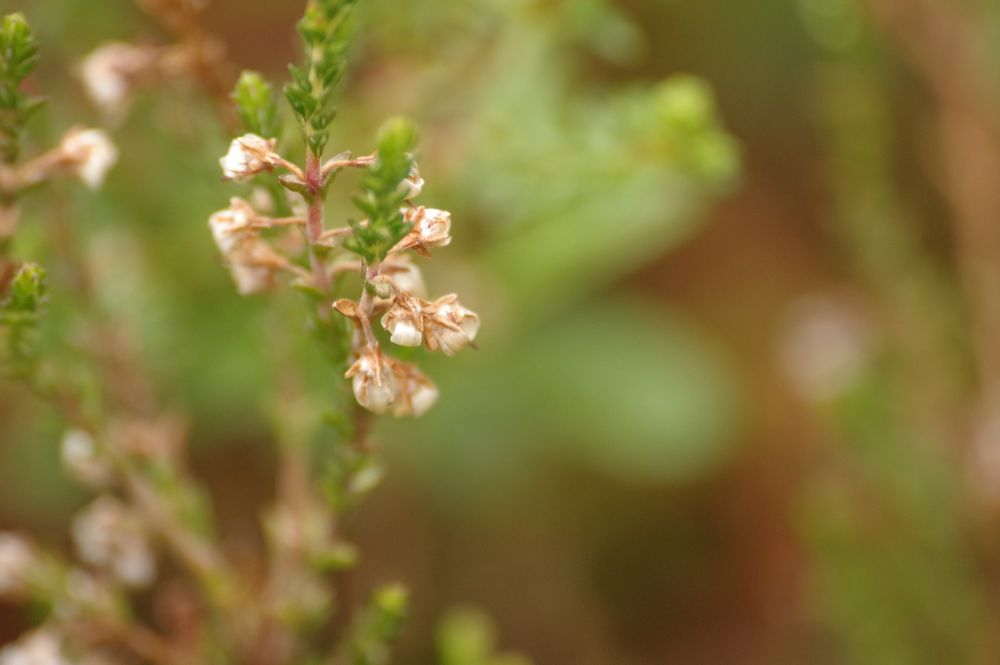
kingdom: Plantae
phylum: Tracheophyta
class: Magnoliopsida
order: Ericales
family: Ericaceae
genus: Calluna
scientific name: Calluna vulgaris
